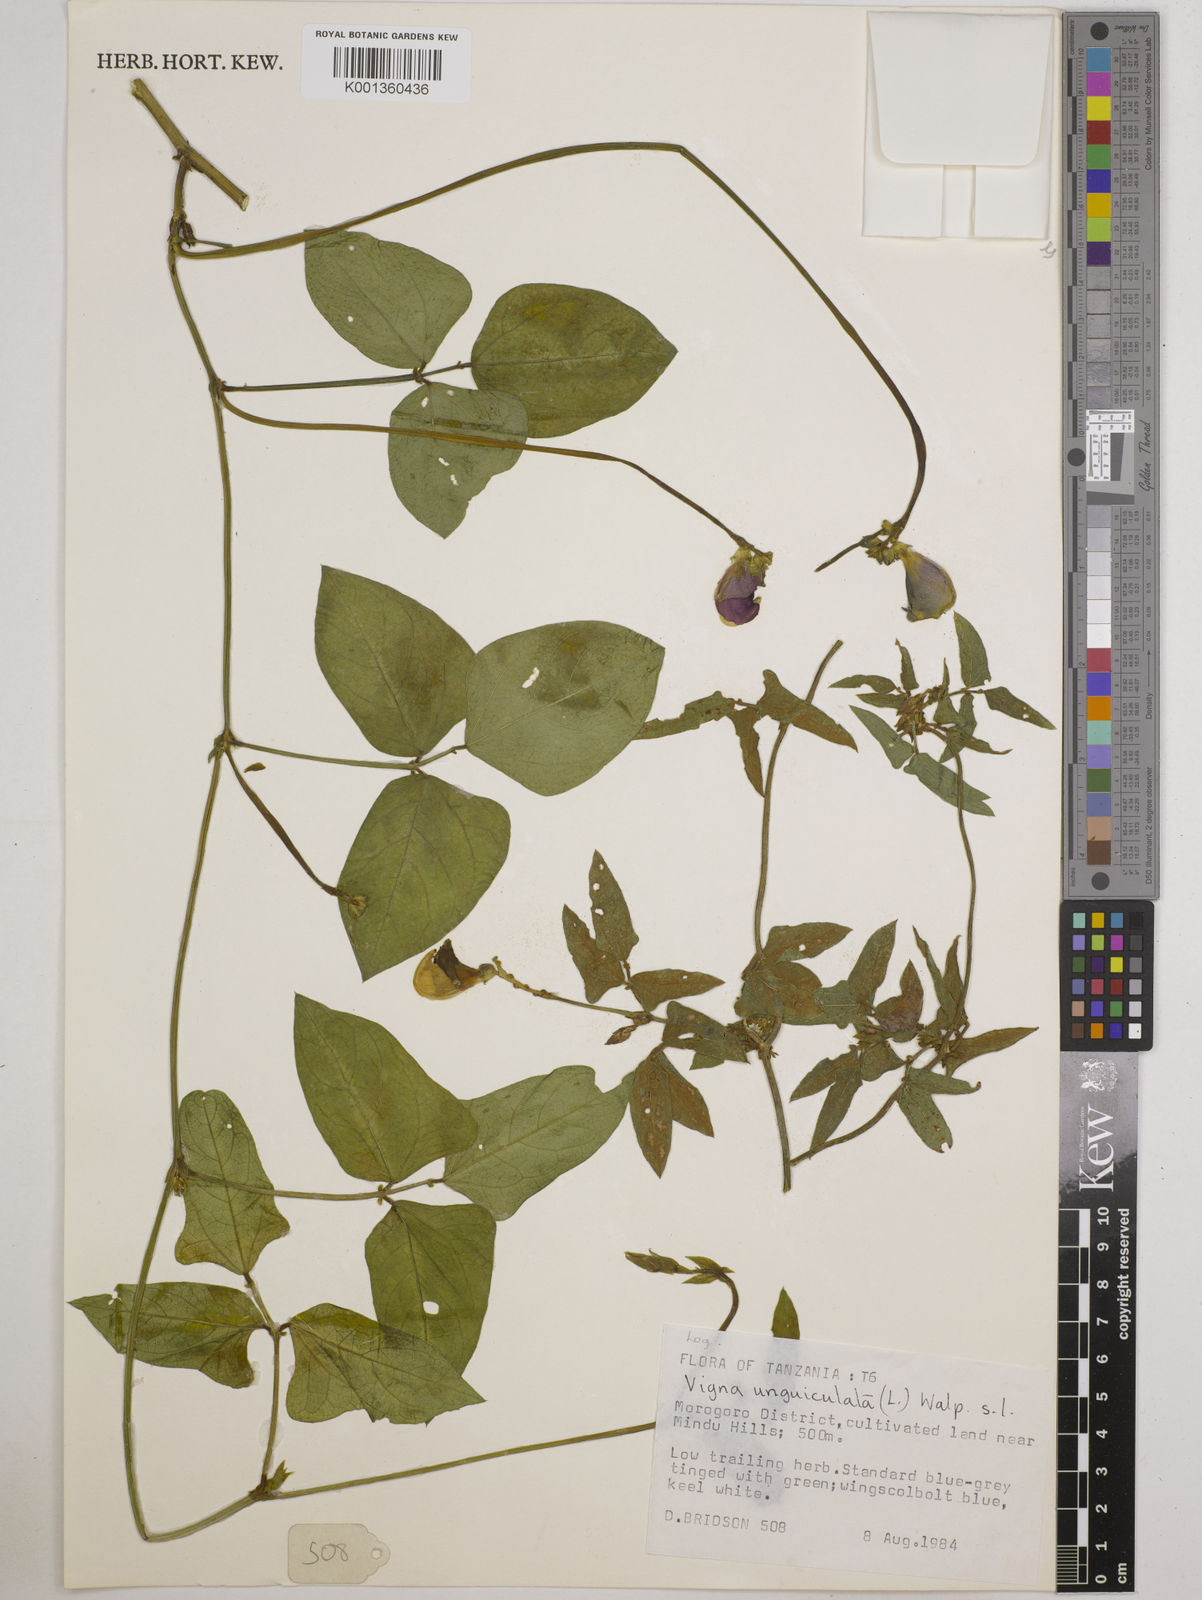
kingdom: Plantae
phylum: Tracheophyta
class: Magnoliopsida
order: Fabales
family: Fabaceae
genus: Vigna
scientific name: Vigna
